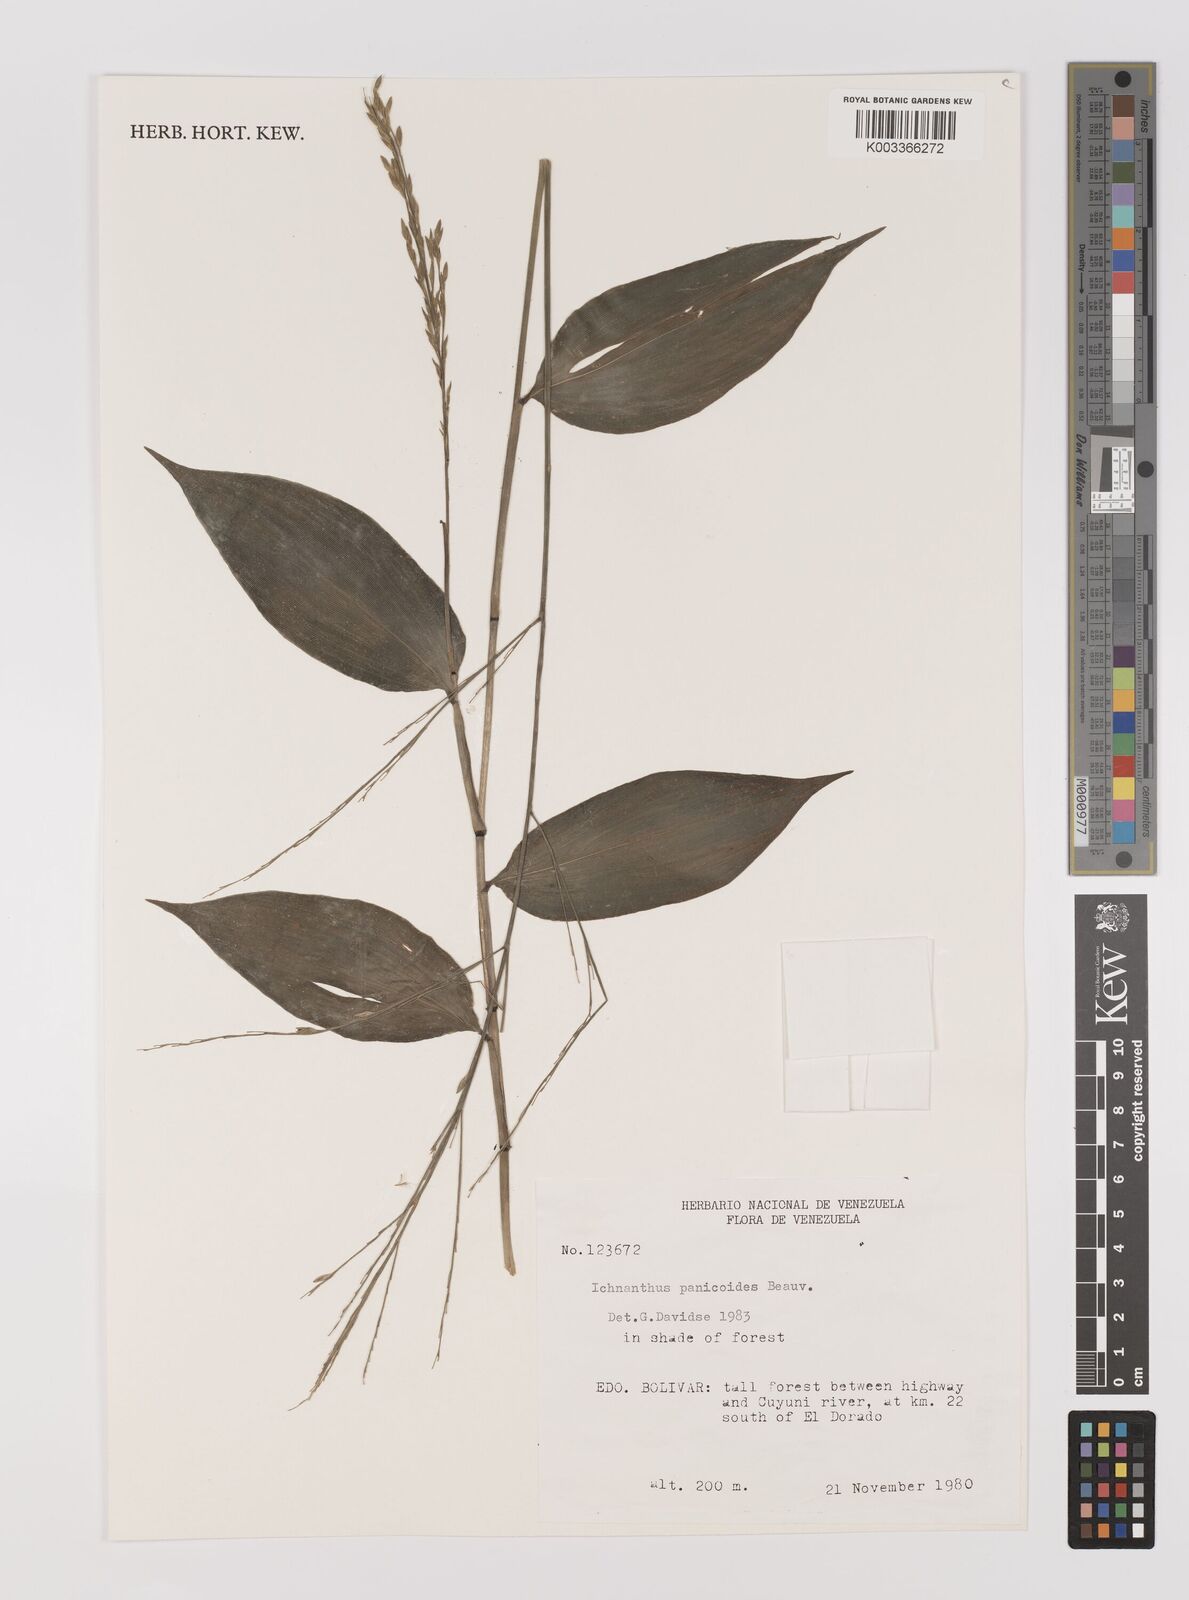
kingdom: Plantae
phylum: Tracheophyta
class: Liliopsida
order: Poales
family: Poaceae
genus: Ichnanthus
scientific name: Ichnanthus panicoides
